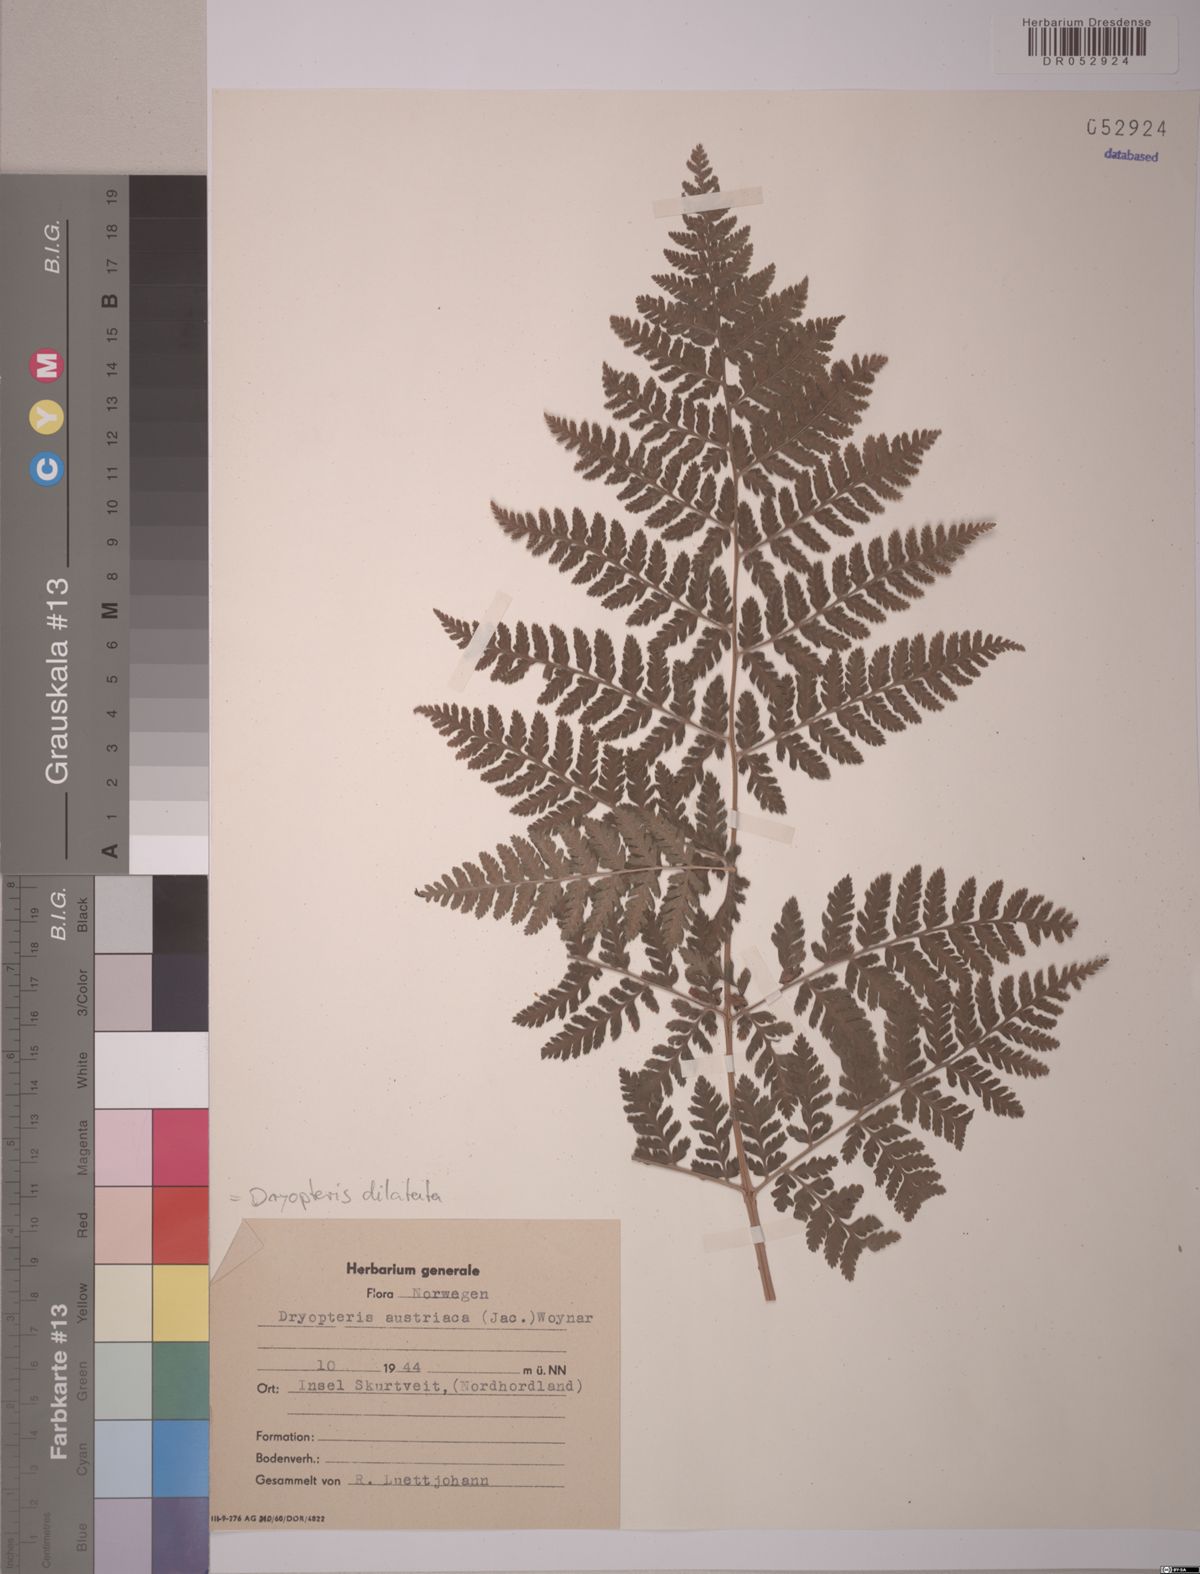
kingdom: Plantae
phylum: Tracheophyta
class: Polypodiopsida
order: Polypodiales
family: Dryopteridaceae
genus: Dryopteris
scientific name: Dryopteris dilatata
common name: Broad buckler-fern
